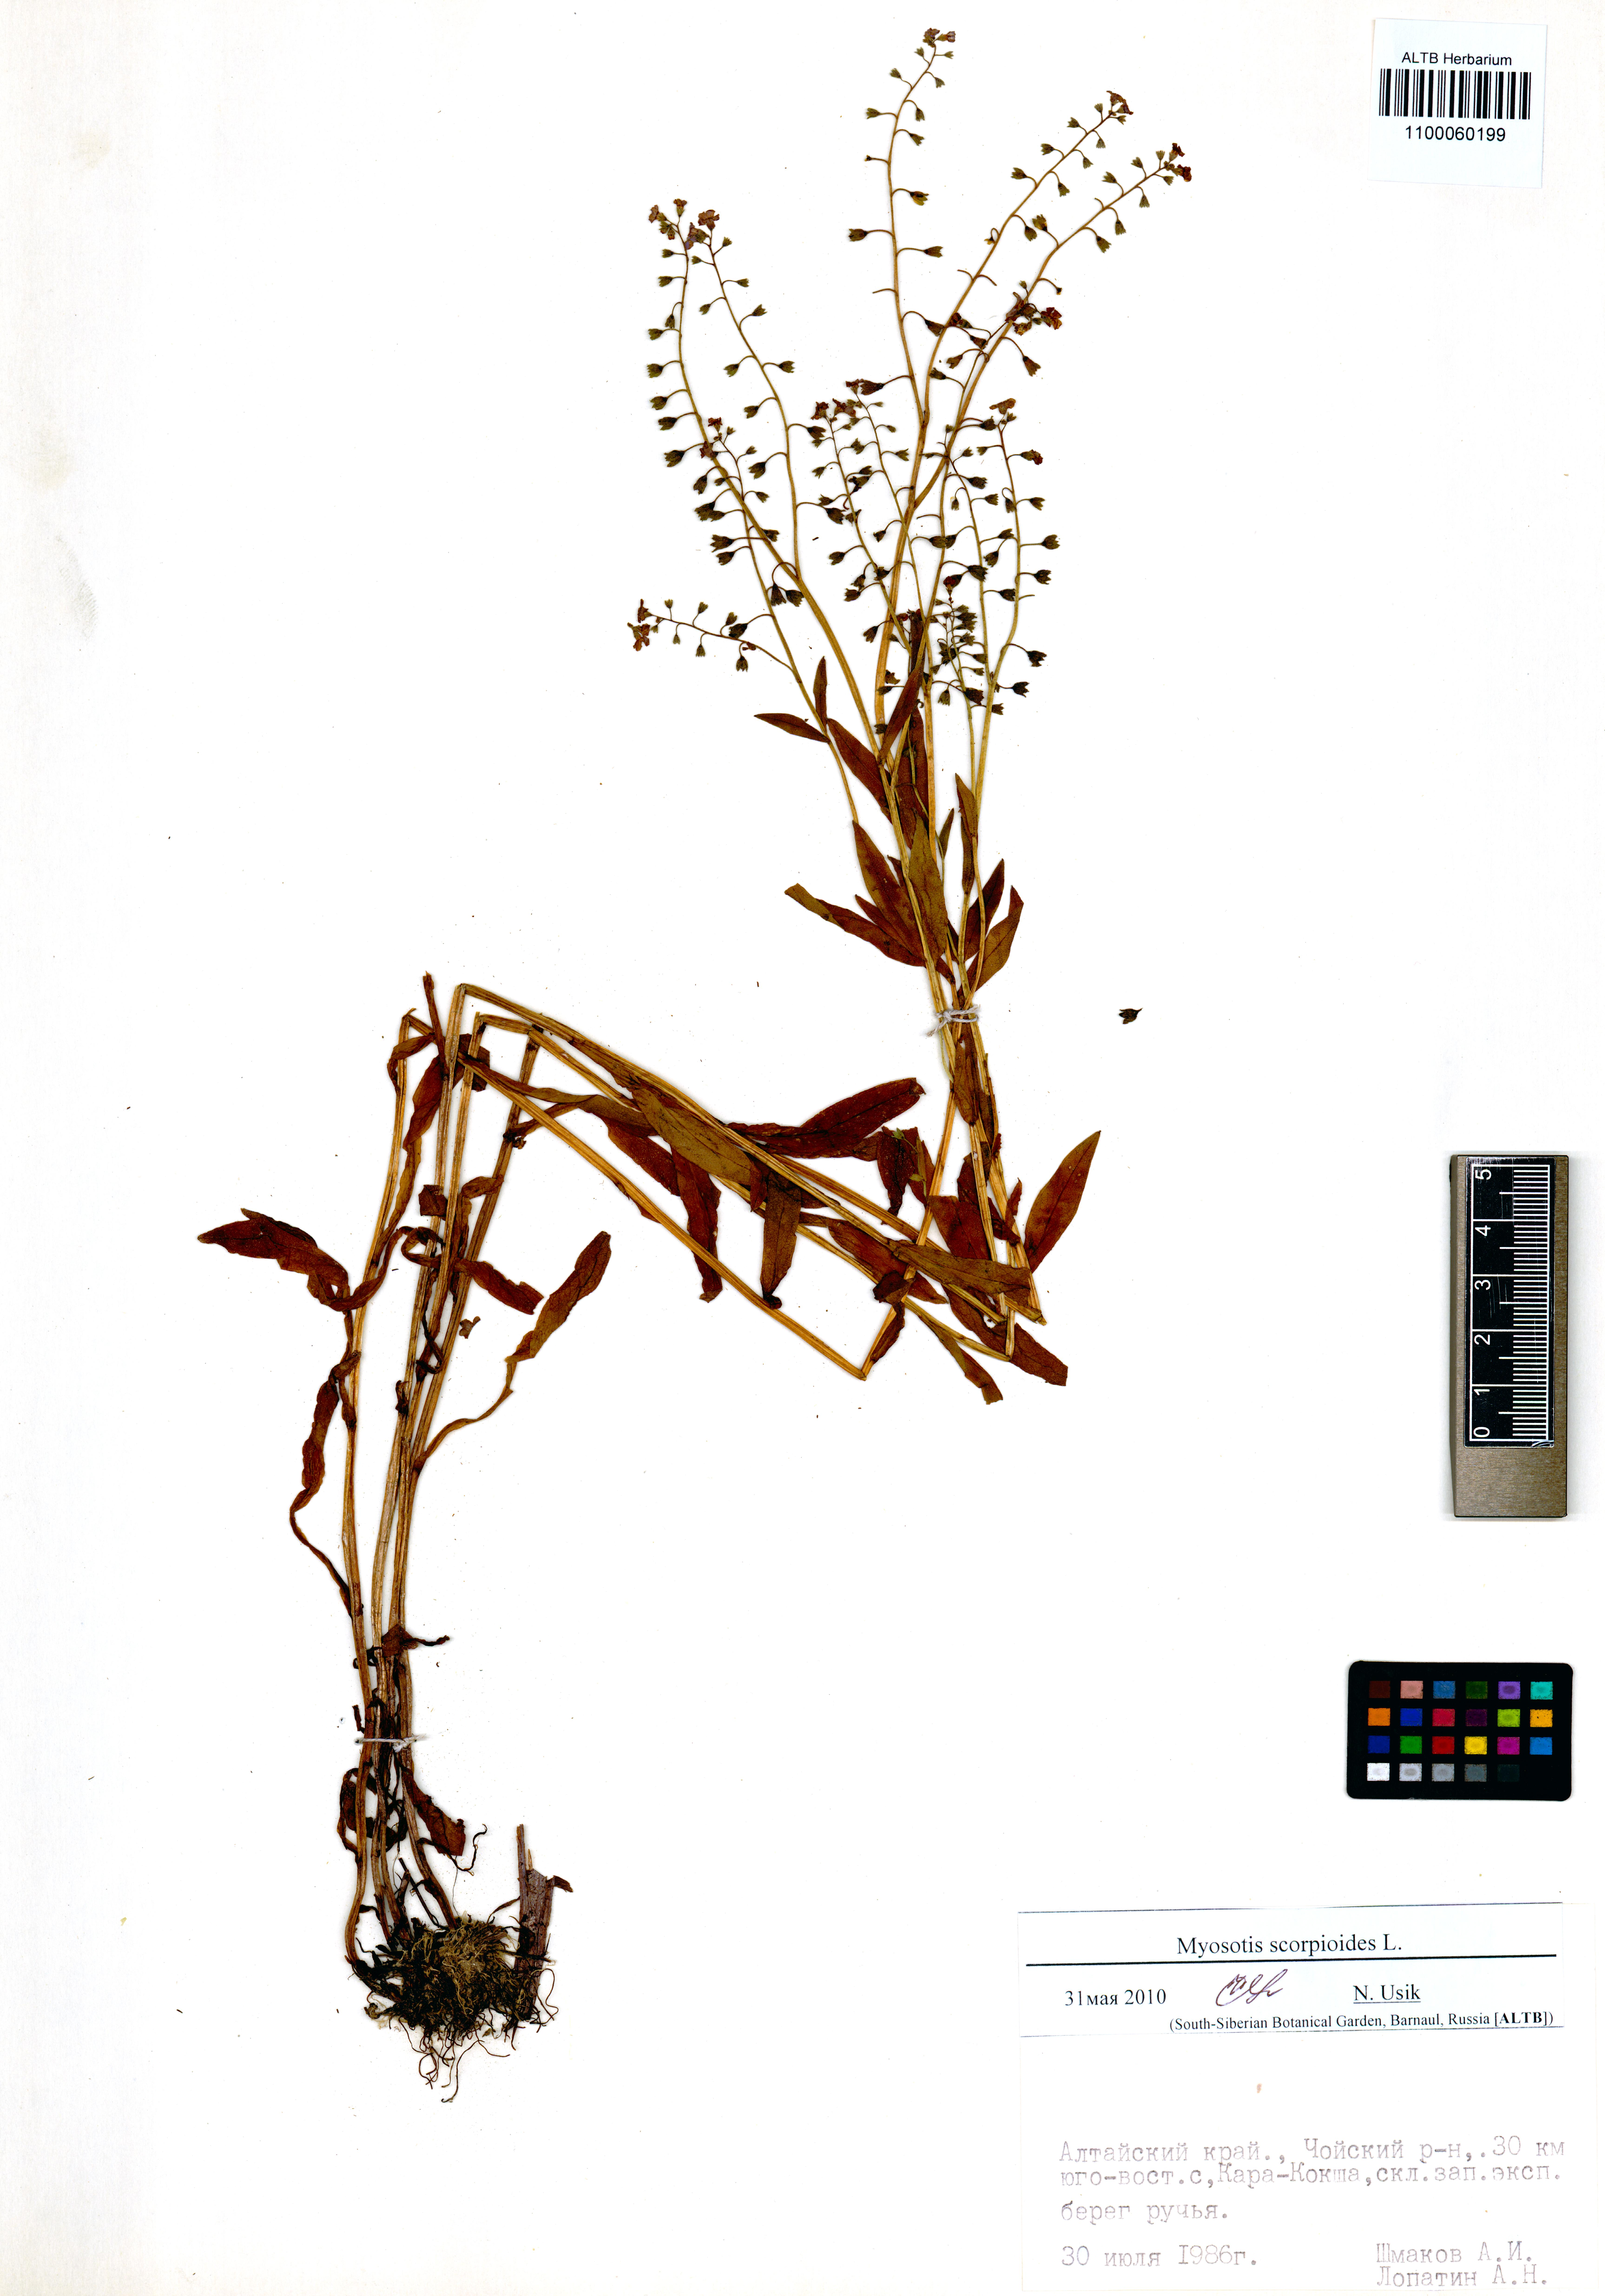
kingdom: Plantae
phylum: Tracheophyta
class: Magnoliopsida
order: Boraginales
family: Boraginaceae
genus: Myosotis
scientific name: Myosotis scorpioides
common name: Water forget-me-not
